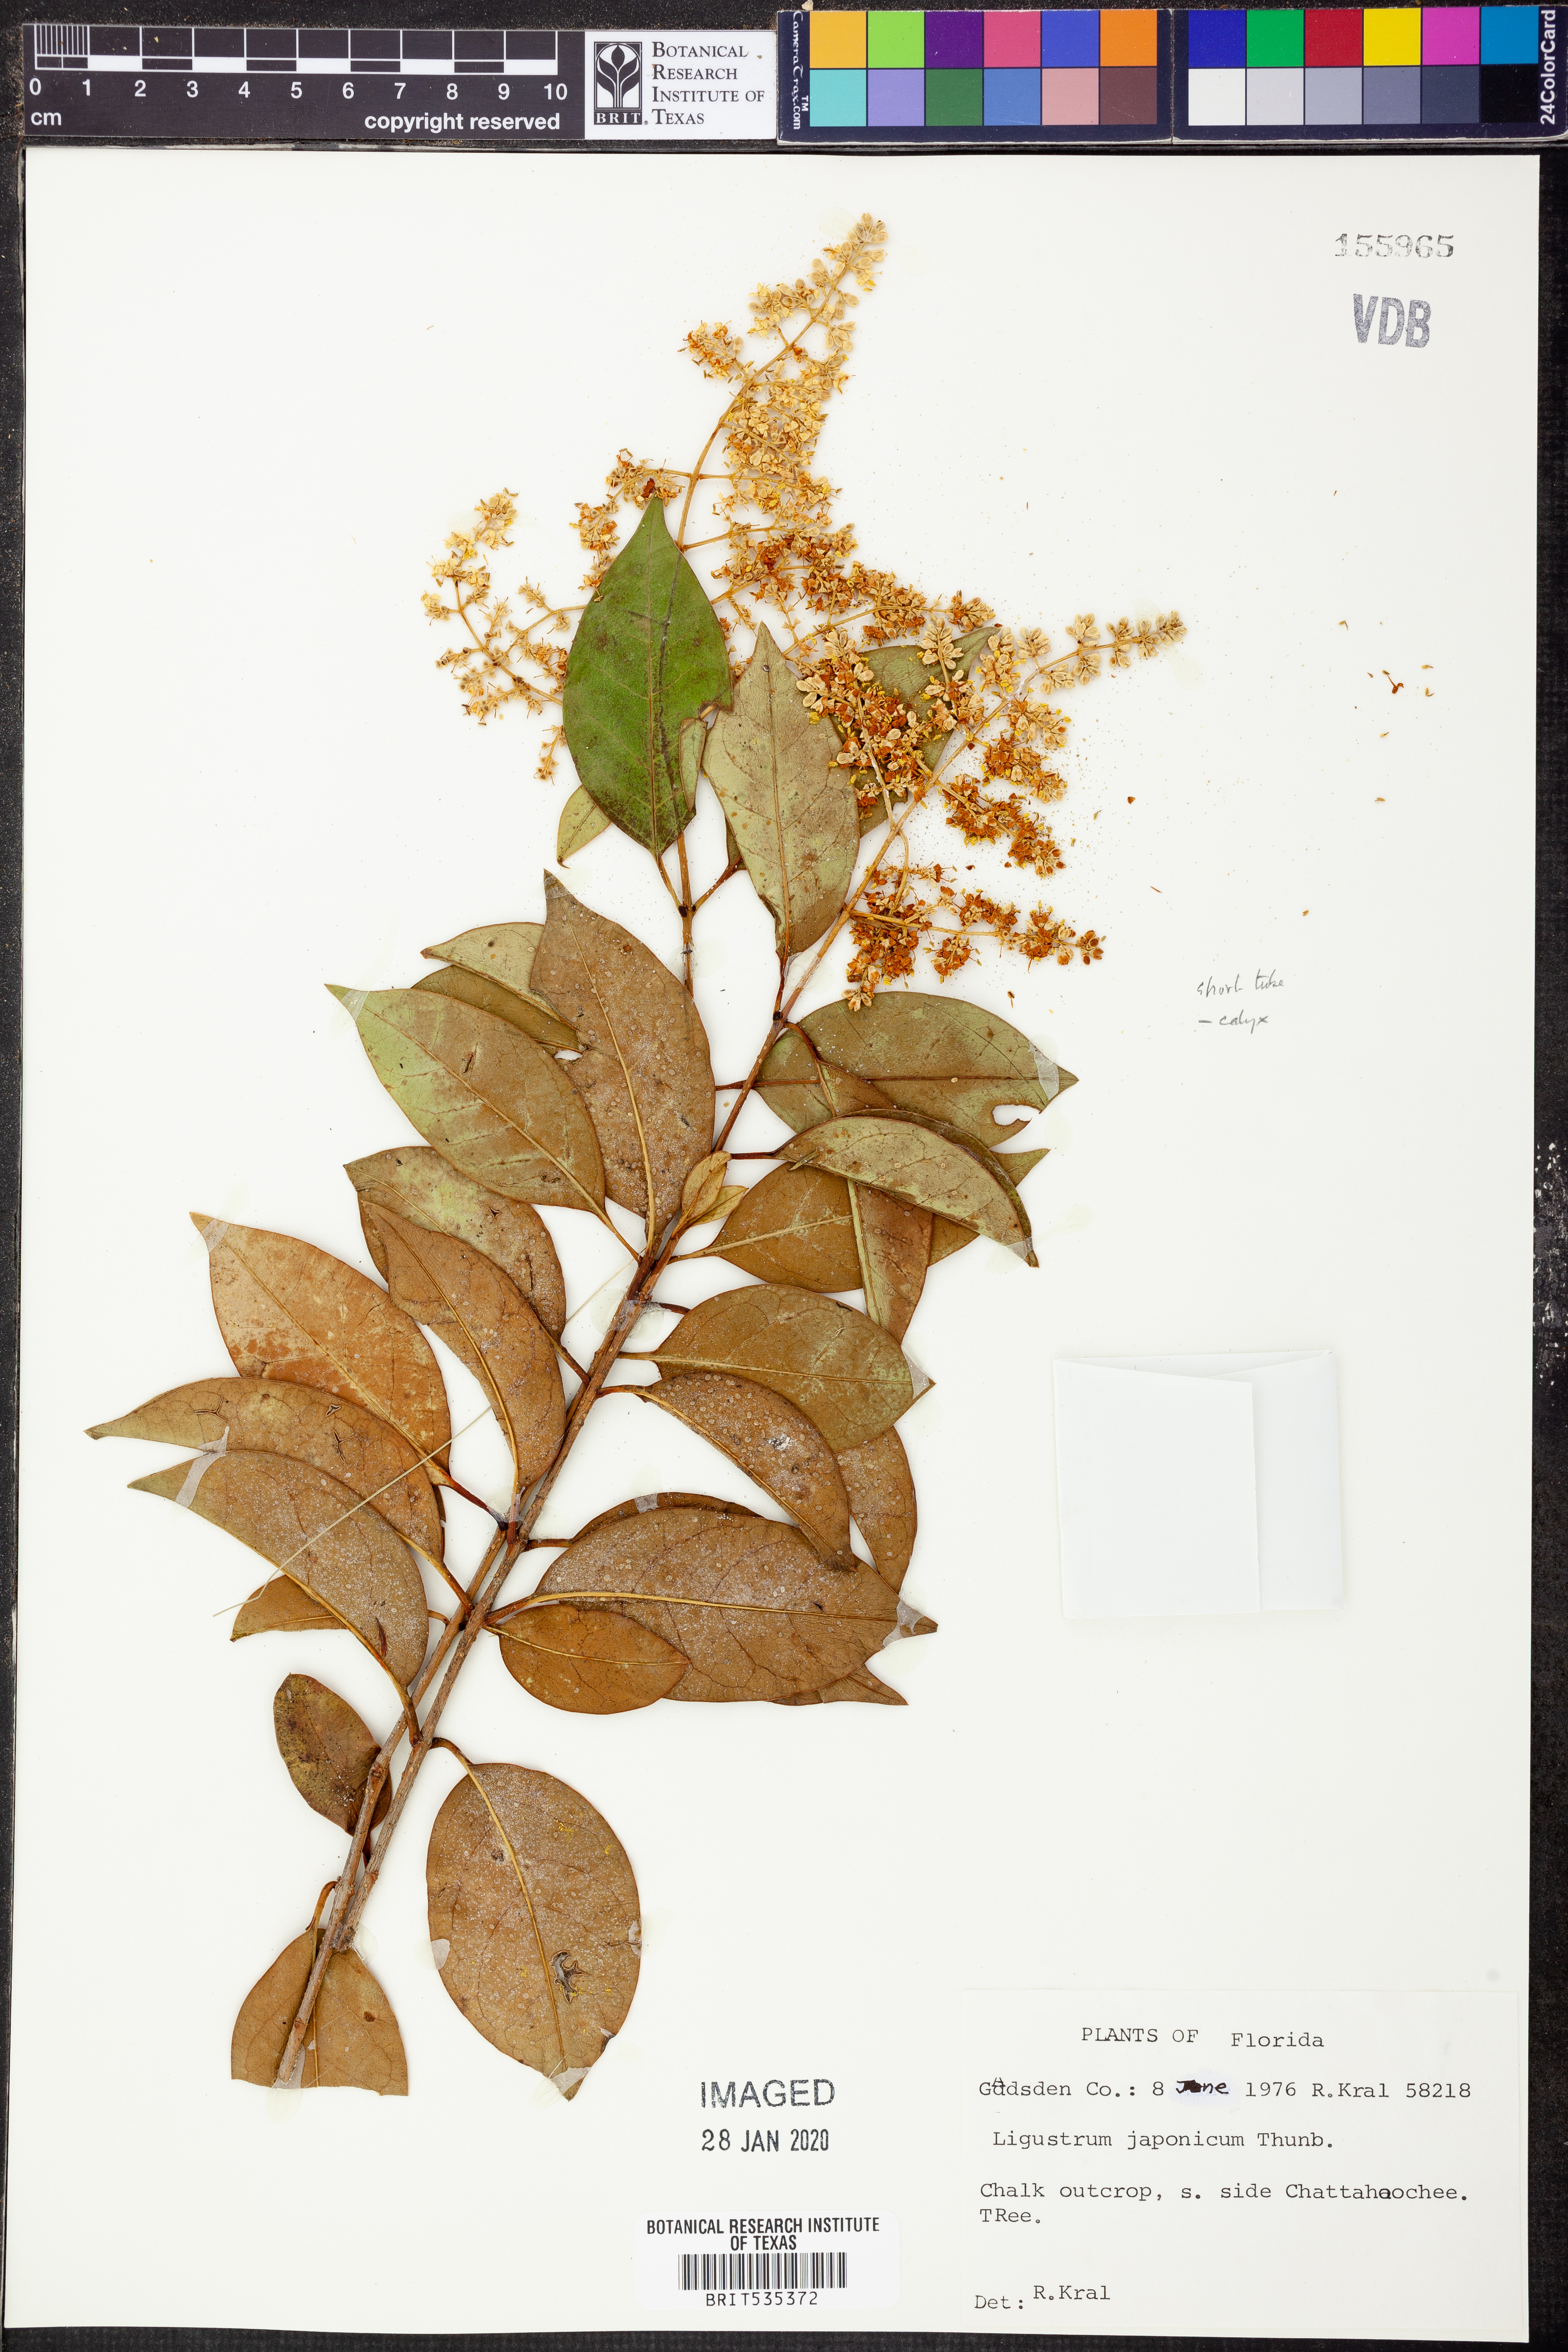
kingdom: Plantae
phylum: Tracheophyta
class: Magnoliopsida
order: Lamiales
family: Oleaceae
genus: Ligustrum
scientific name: Ligustrum japonicum
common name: Japanese privet
